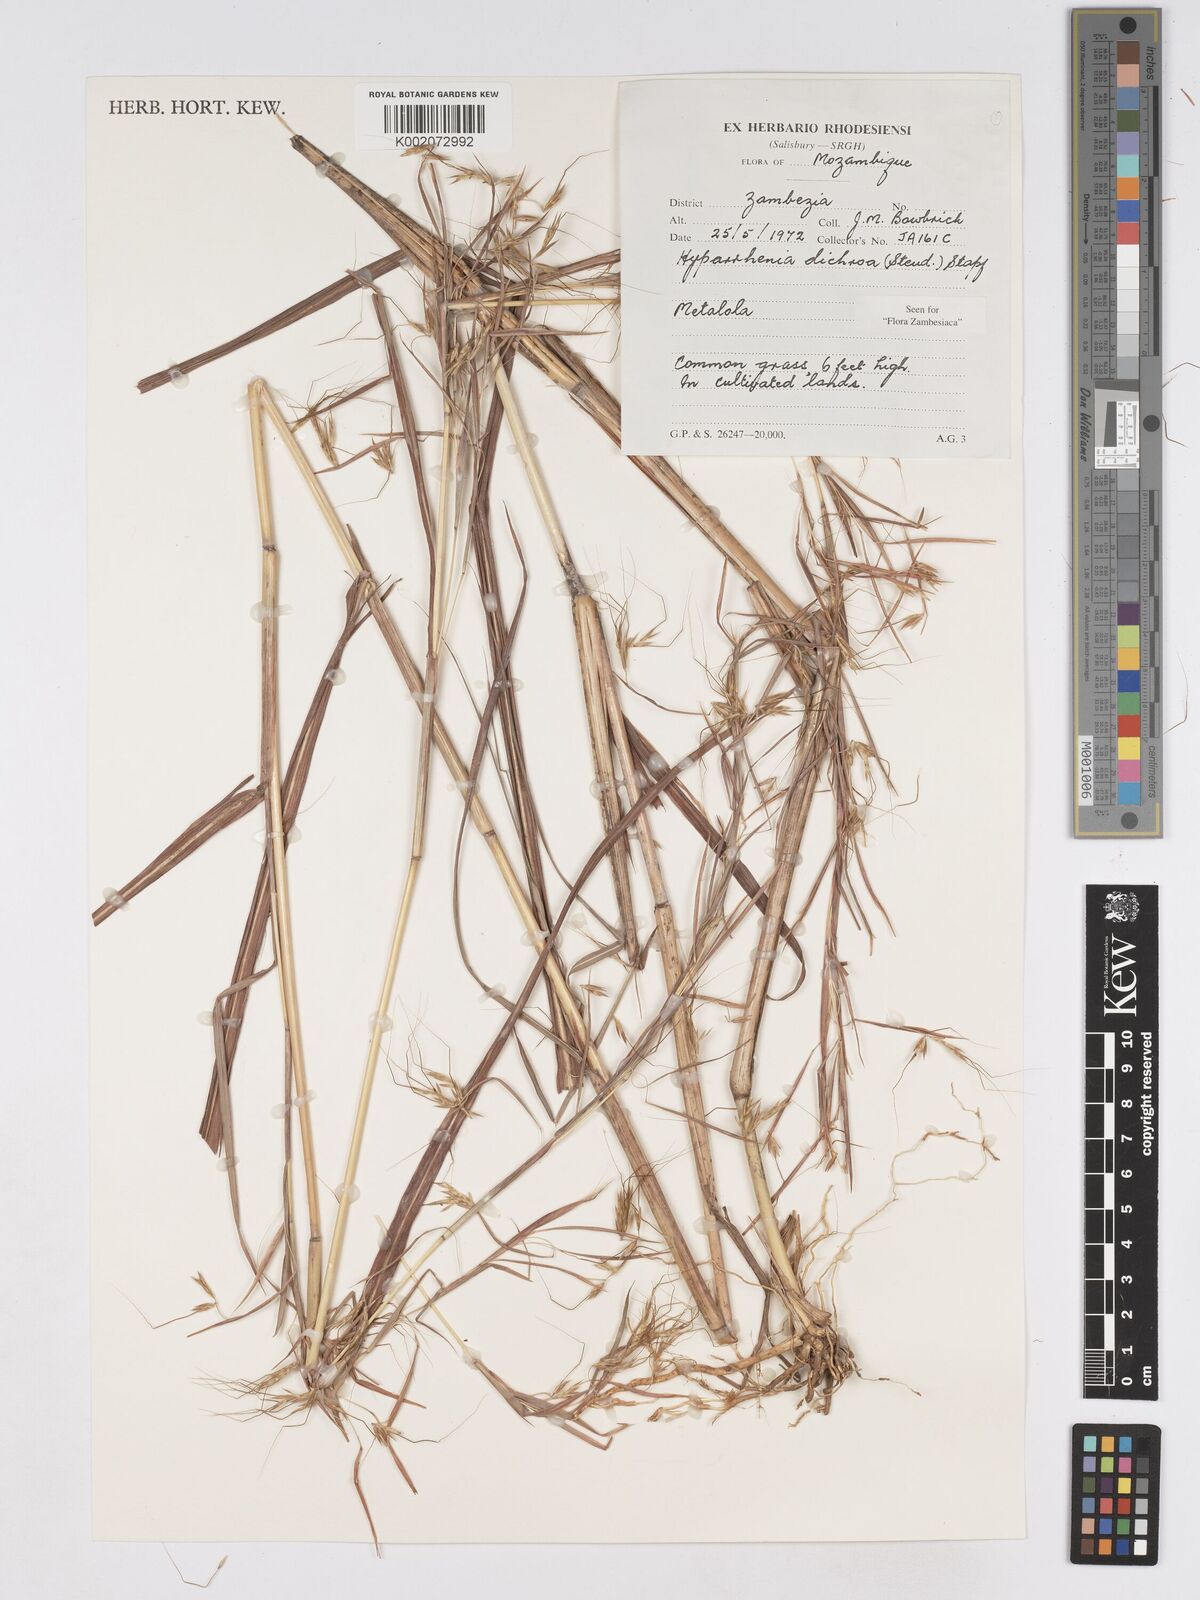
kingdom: Plantae
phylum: Tracheophyta
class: Liliopsida
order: Poales
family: Poaceae
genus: Hyparrhenia
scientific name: Hyparrhenia dichroa
